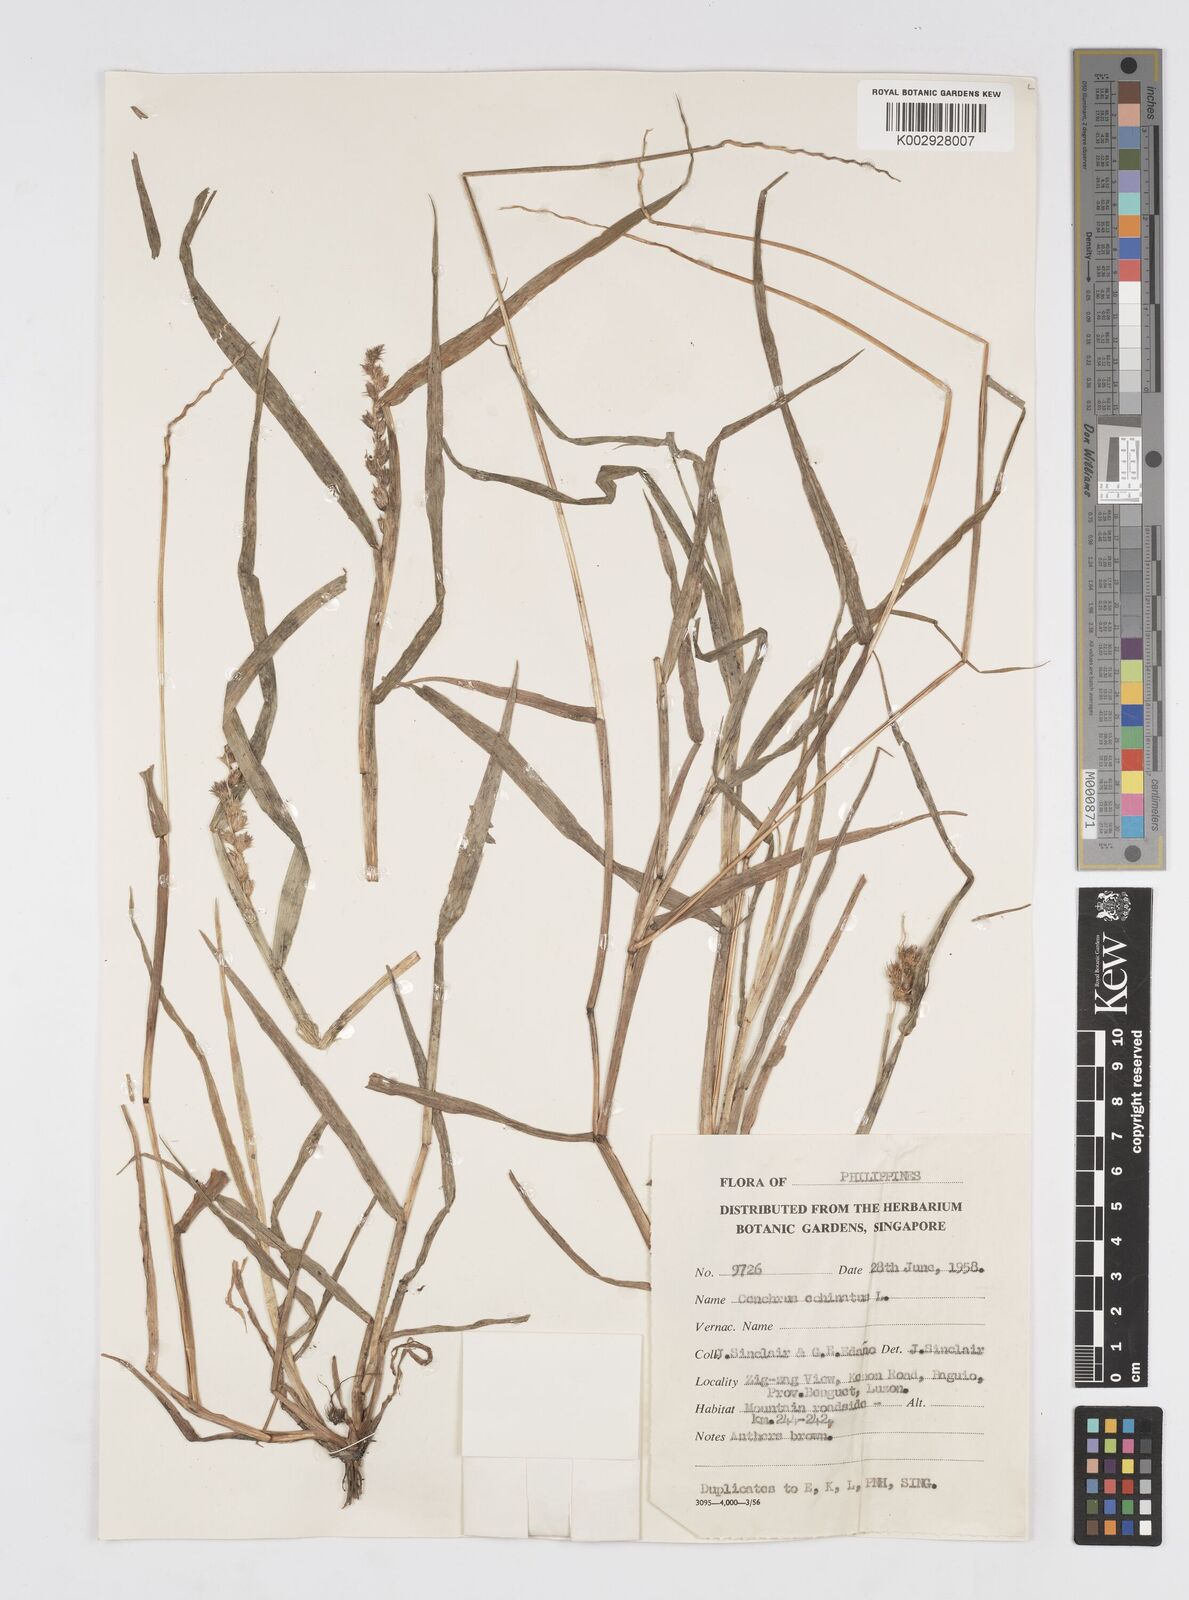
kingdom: Plantae
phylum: Tracheophyta
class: Liliopsida
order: Poales
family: Poaceae
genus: Cenchrus
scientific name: Cenchrus brownii
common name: Slim-bristle sandbur
